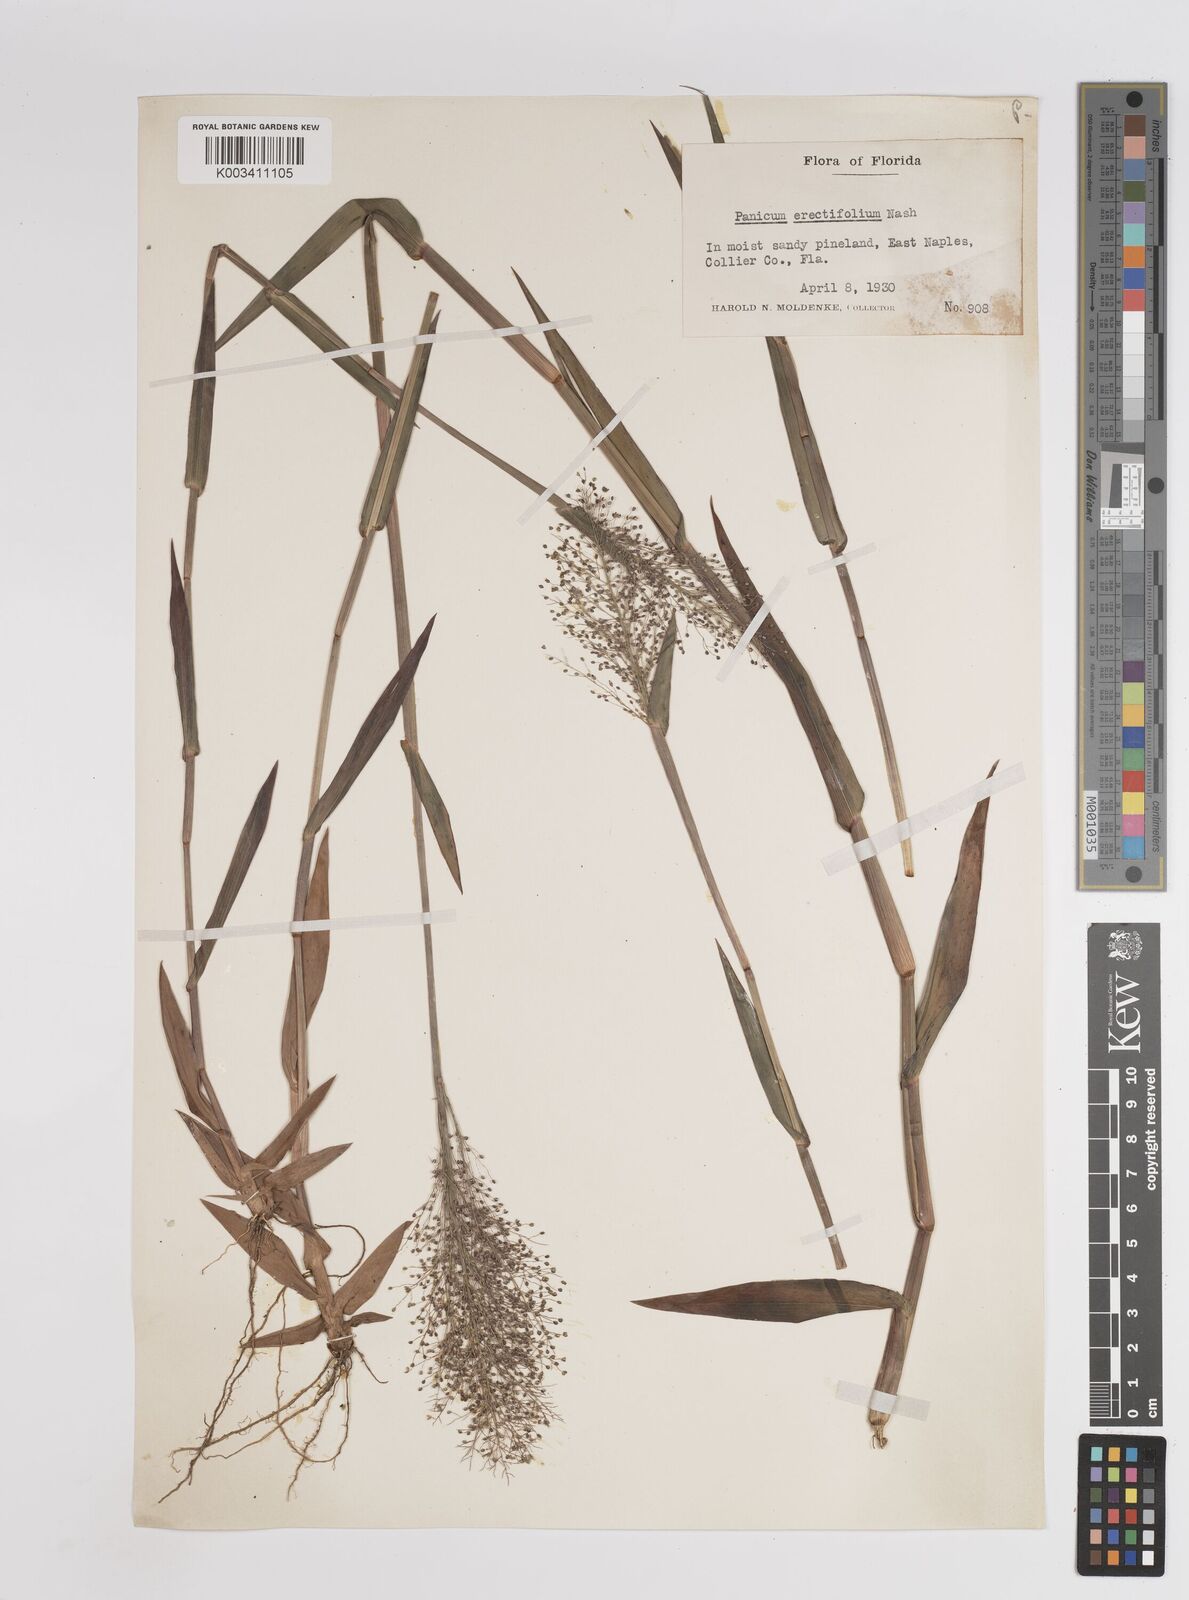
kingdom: Plantae
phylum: Tracheophyta
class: Liliopsida
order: Poales
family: Poaceae
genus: Dichanthelium
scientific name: Dichanthelium erectifolium
